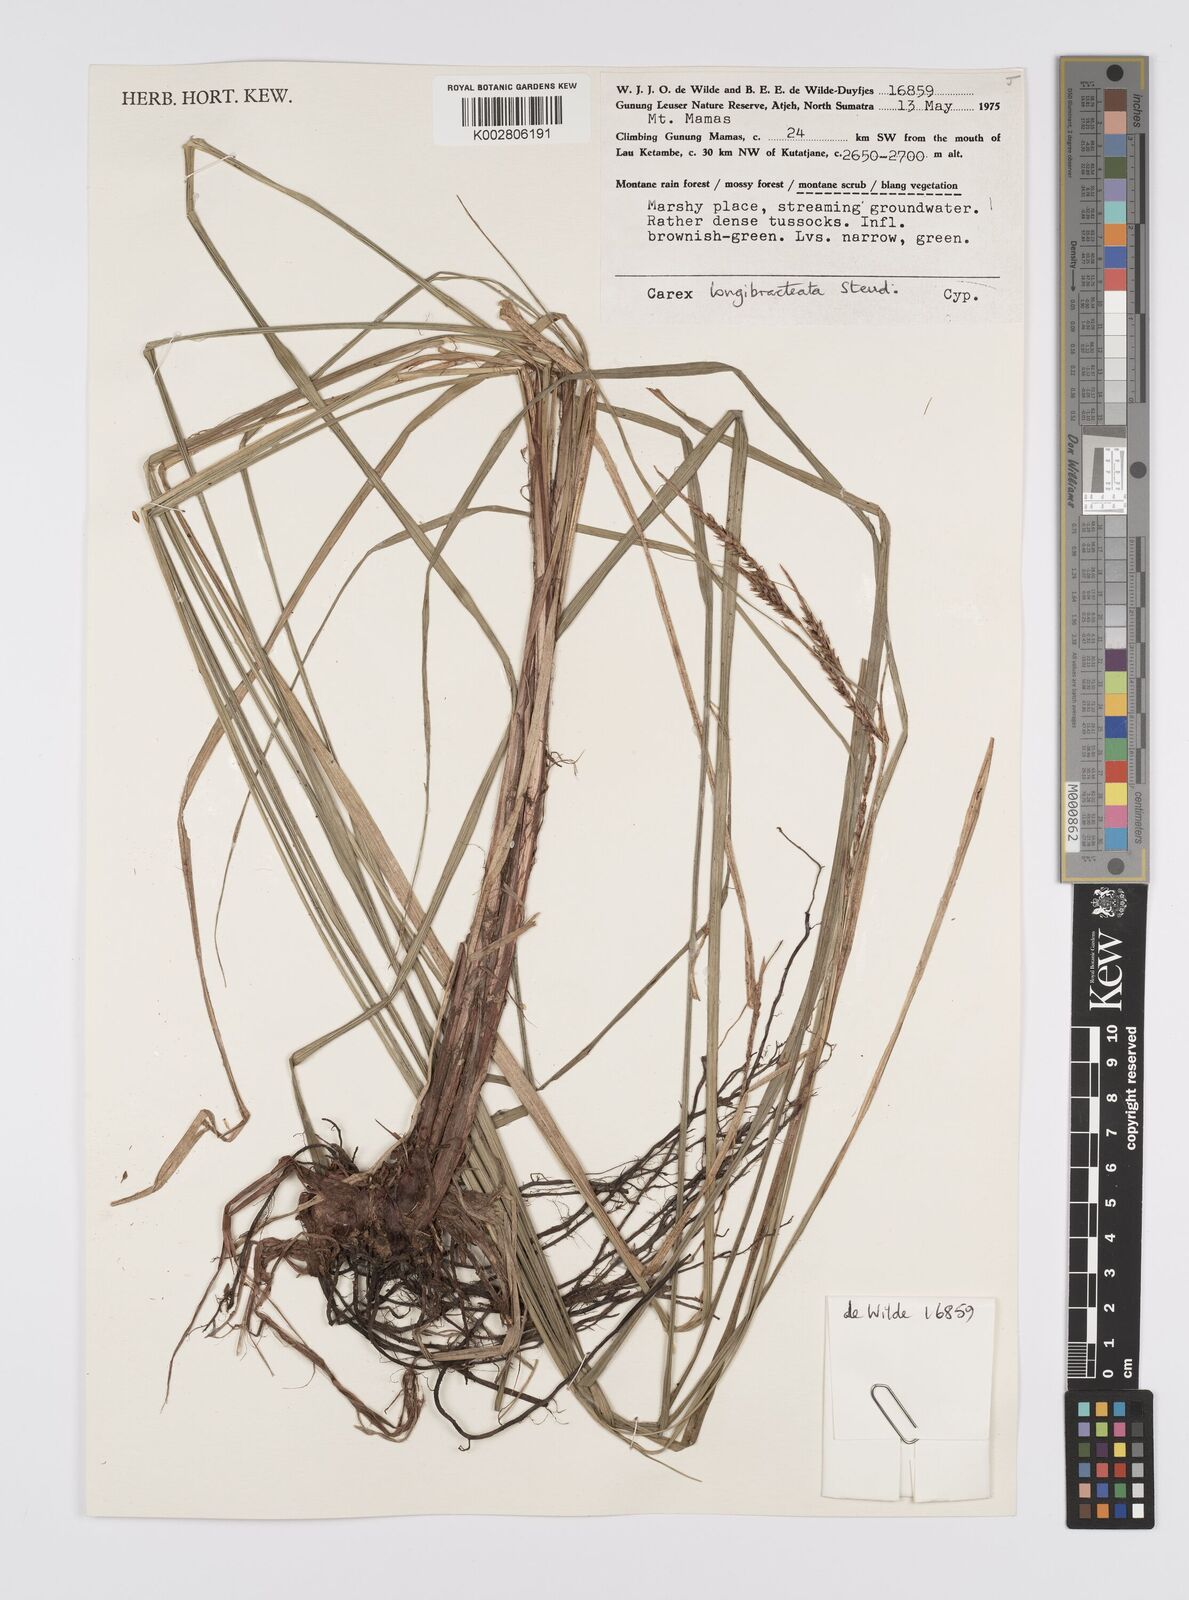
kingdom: Plantae
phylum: Tracheophyta
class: Liliopsida
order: Poales
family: Cyperaceae
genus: Carex
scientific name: Carex myosurus
